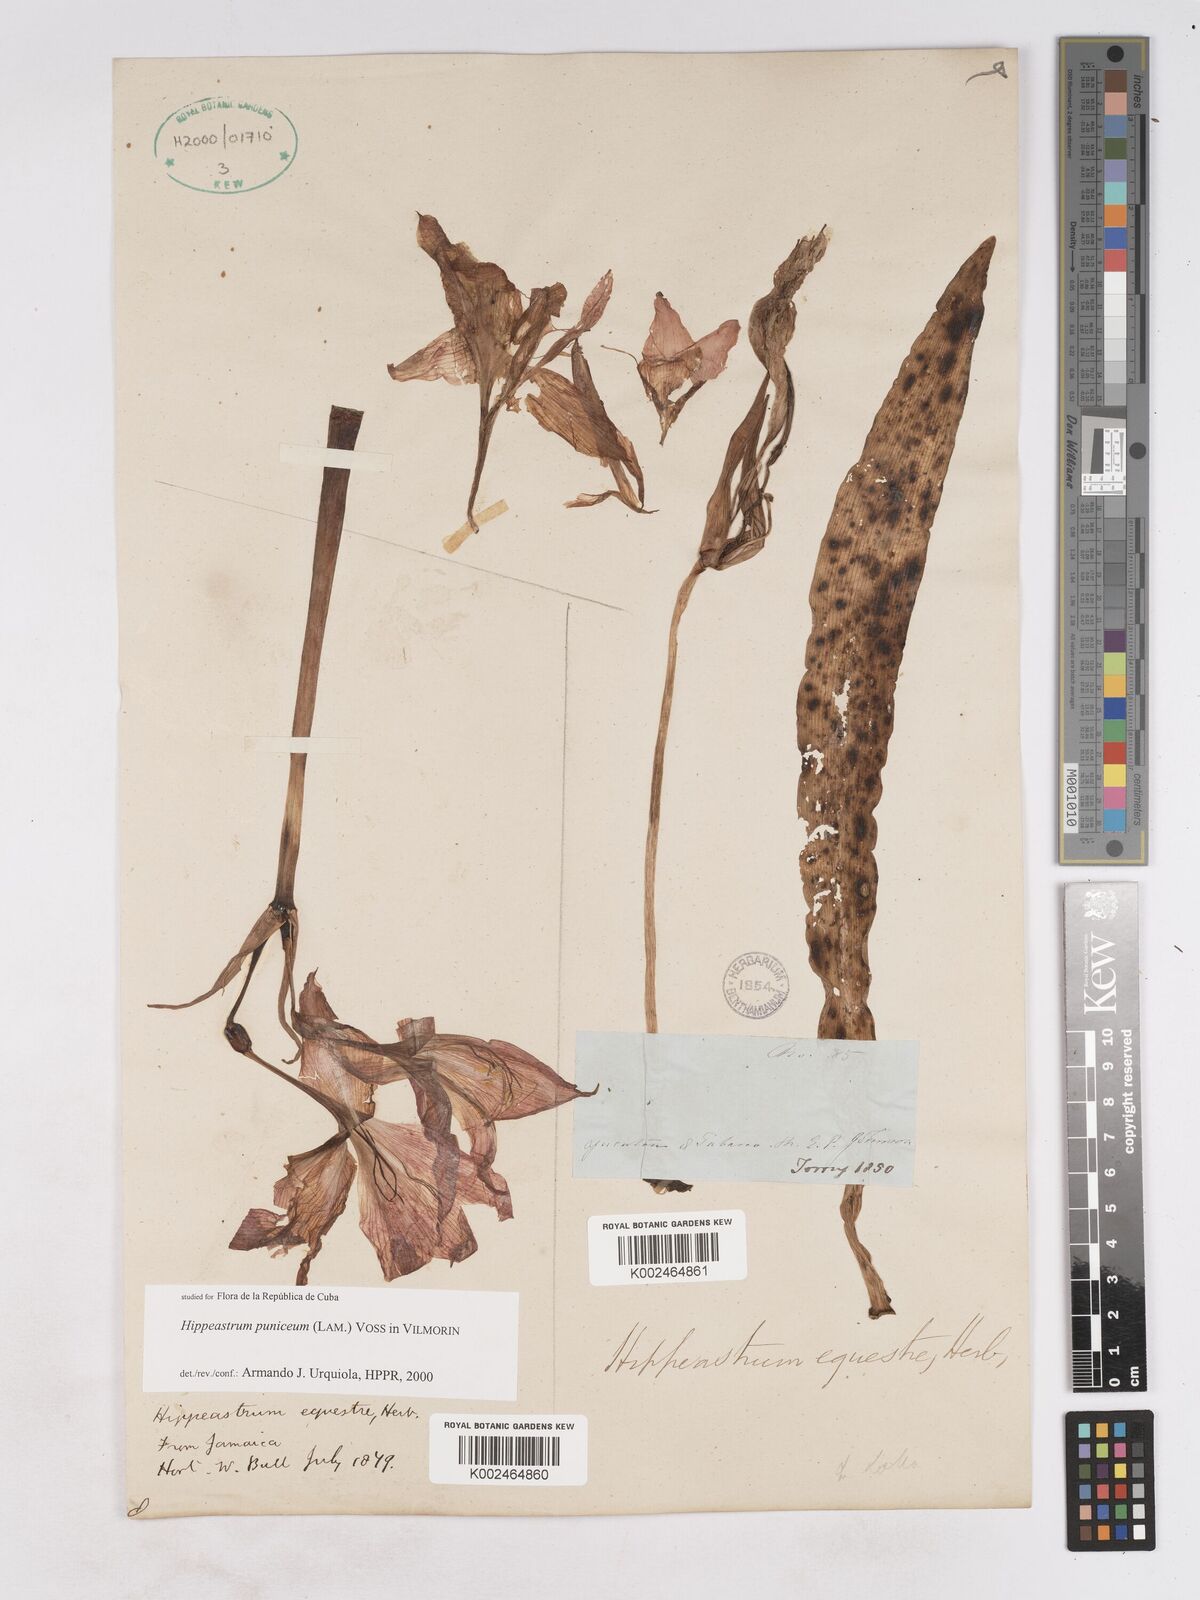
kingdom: Plantae
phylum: Tracheophyta
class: Liliopsida
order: Asparagales
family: Amaryllidaceae
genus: Hippeastrum
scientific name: Hippeastrum puniceum
